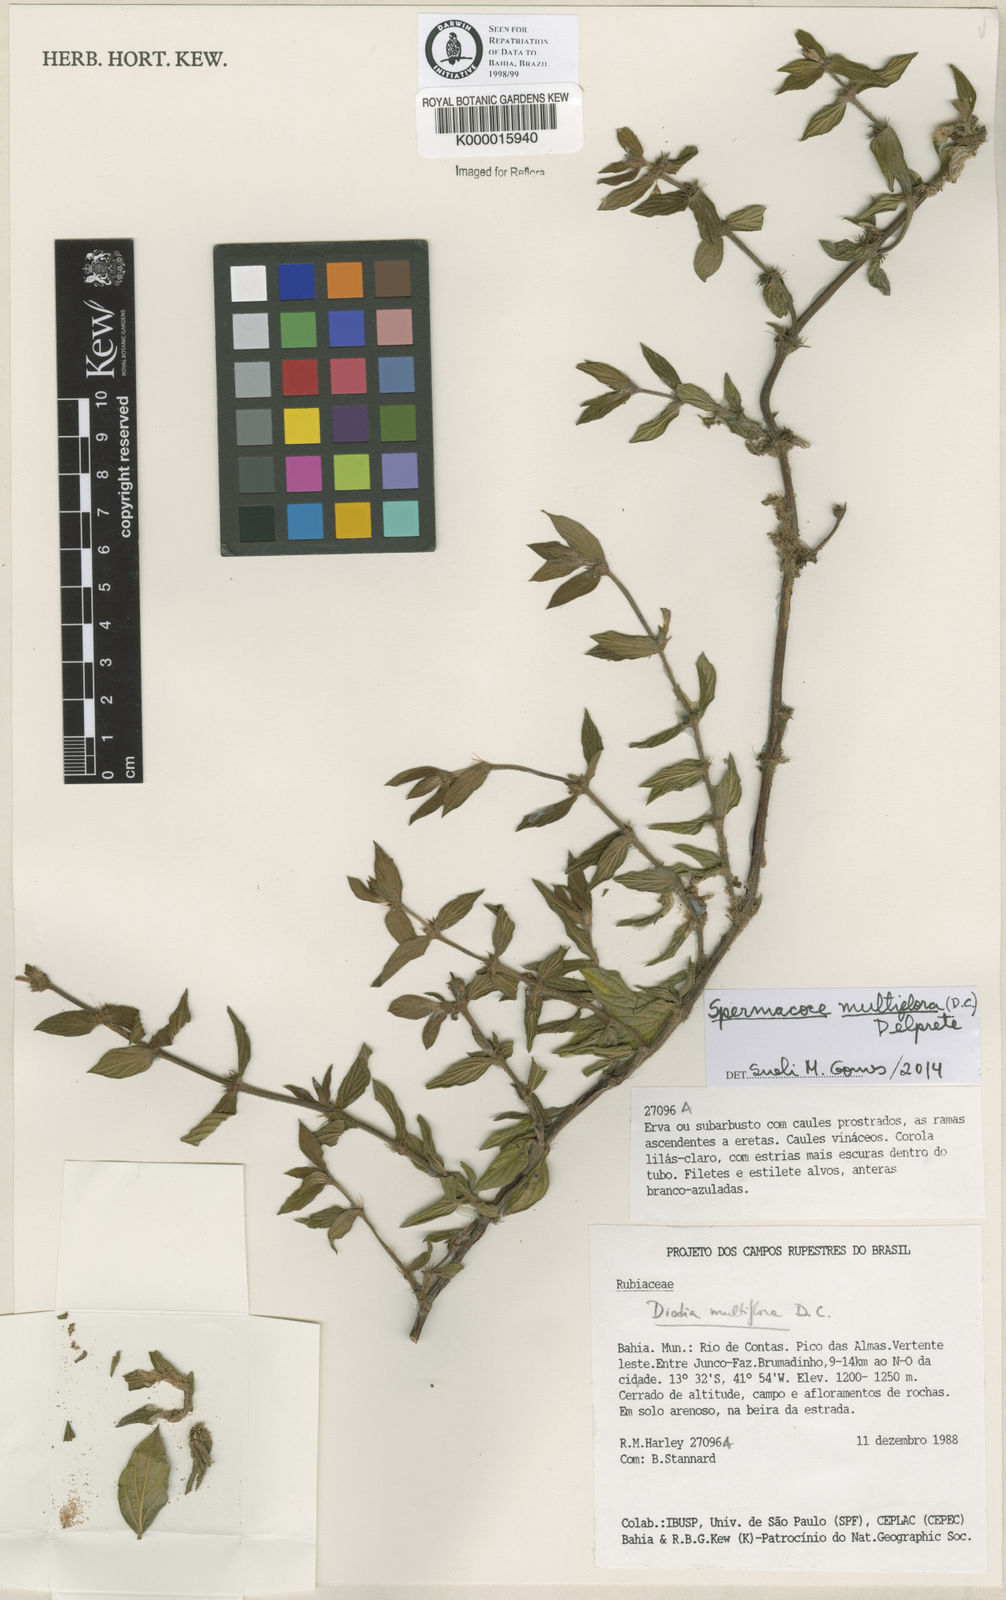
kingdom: Plantae
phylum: Tracheophyta
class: Magnoliopsida
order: Gentianales
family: Rubiaceae
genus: Spermacoce
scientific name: Spermacoce multiflora
